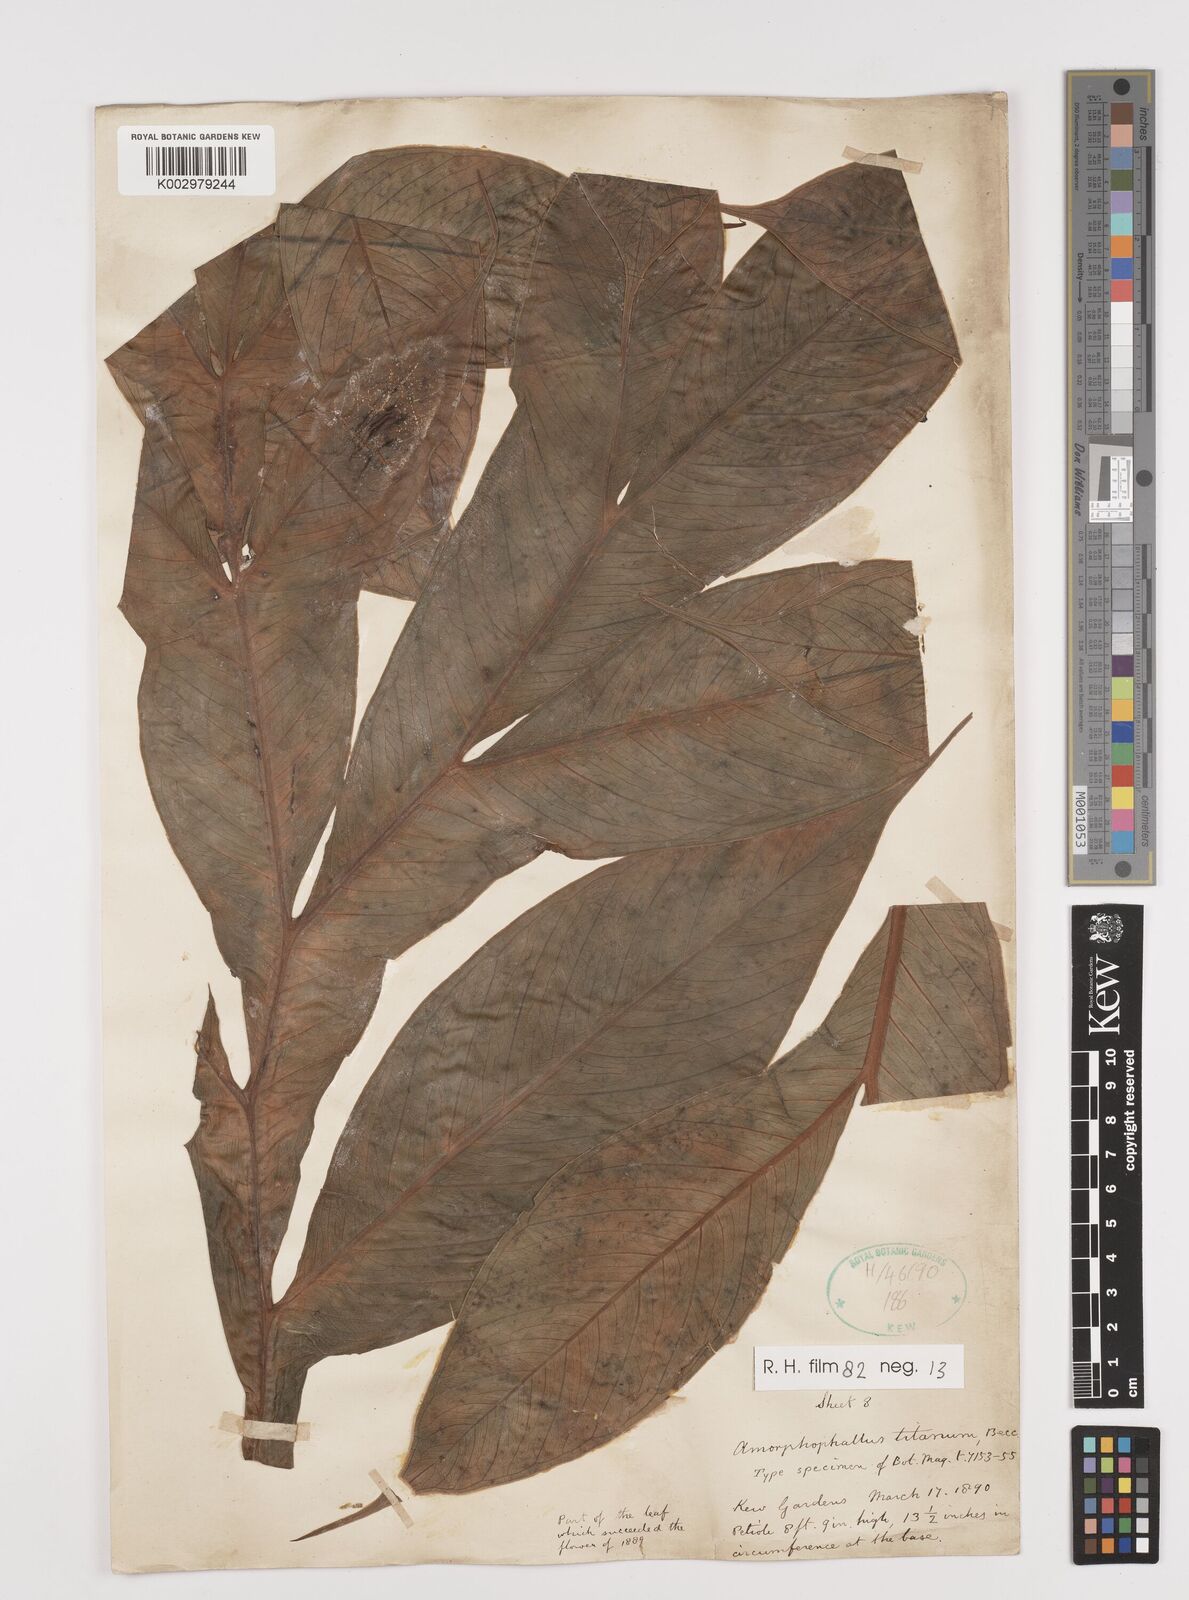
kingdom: Plantae
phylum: Tracheophyta
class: Liliopsida
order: Alismatales
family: Araceae
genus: Amorphophallus
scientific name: Amorphophallus titanum
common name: Titan arum
